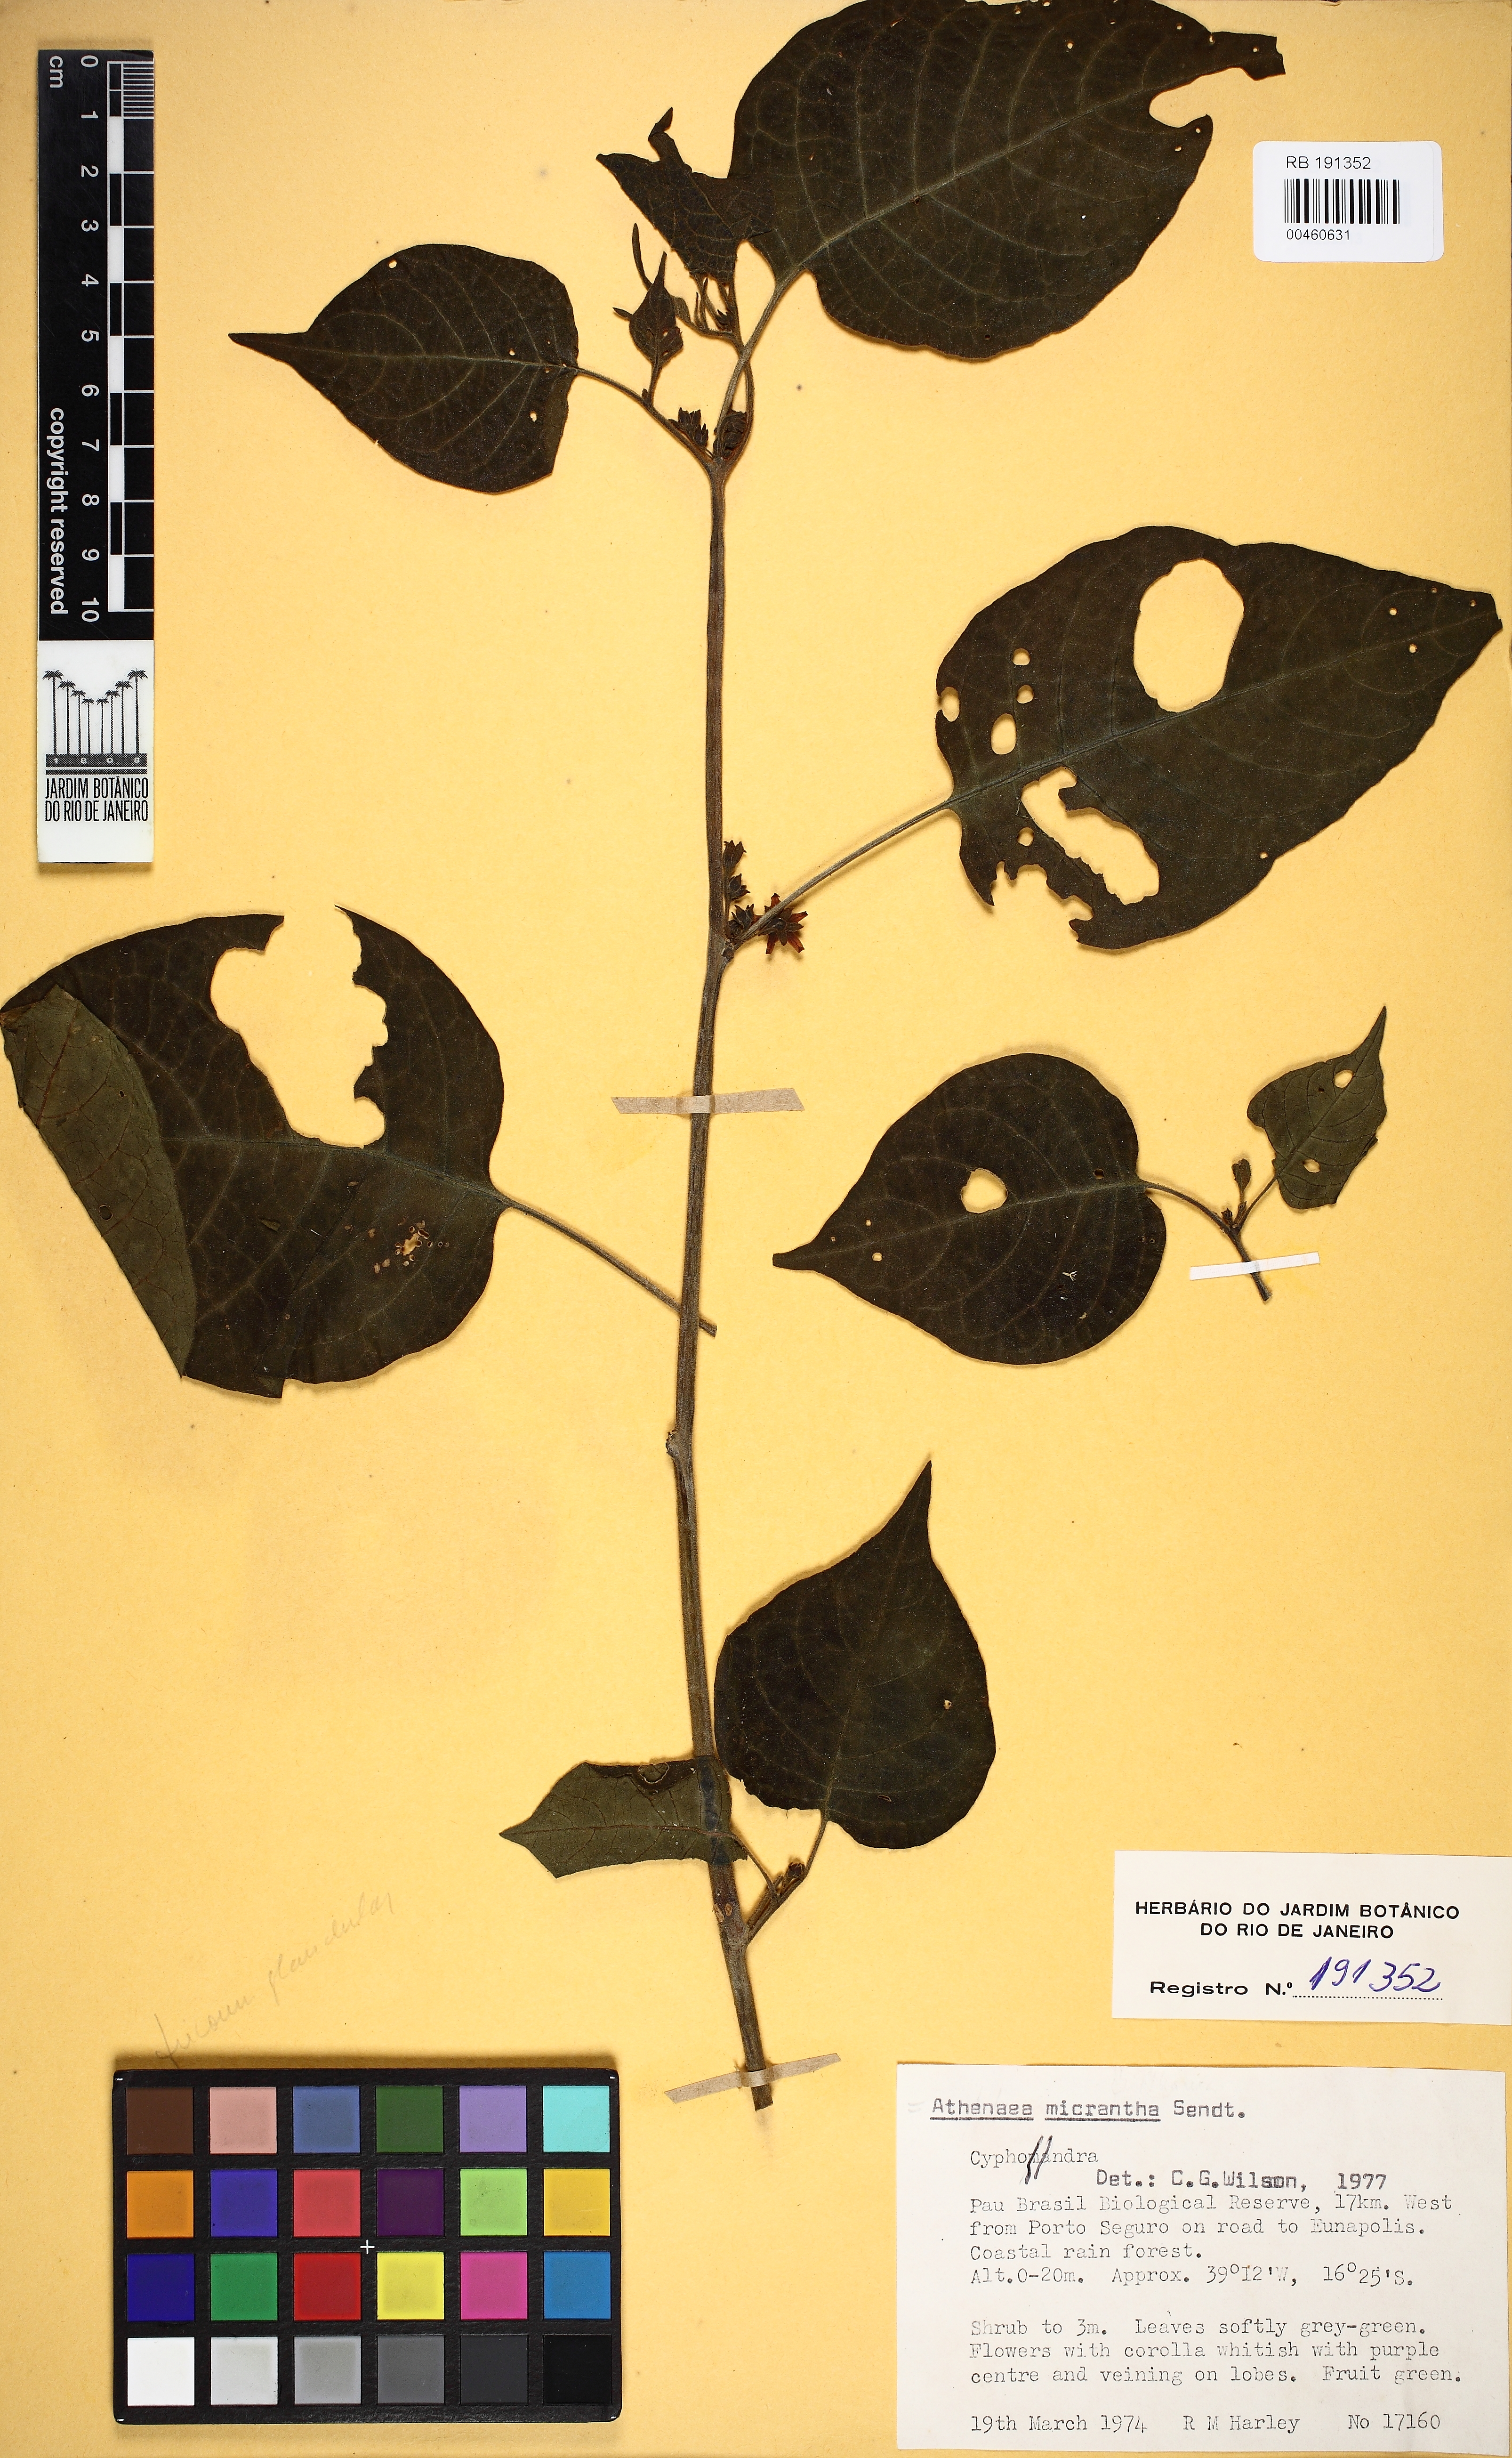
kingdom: Plantae
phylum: Tracheophyta
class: Magnoliopsida
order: Solanales
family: Solanaceae
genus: Athenaea
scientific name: Athenaea pogogena
